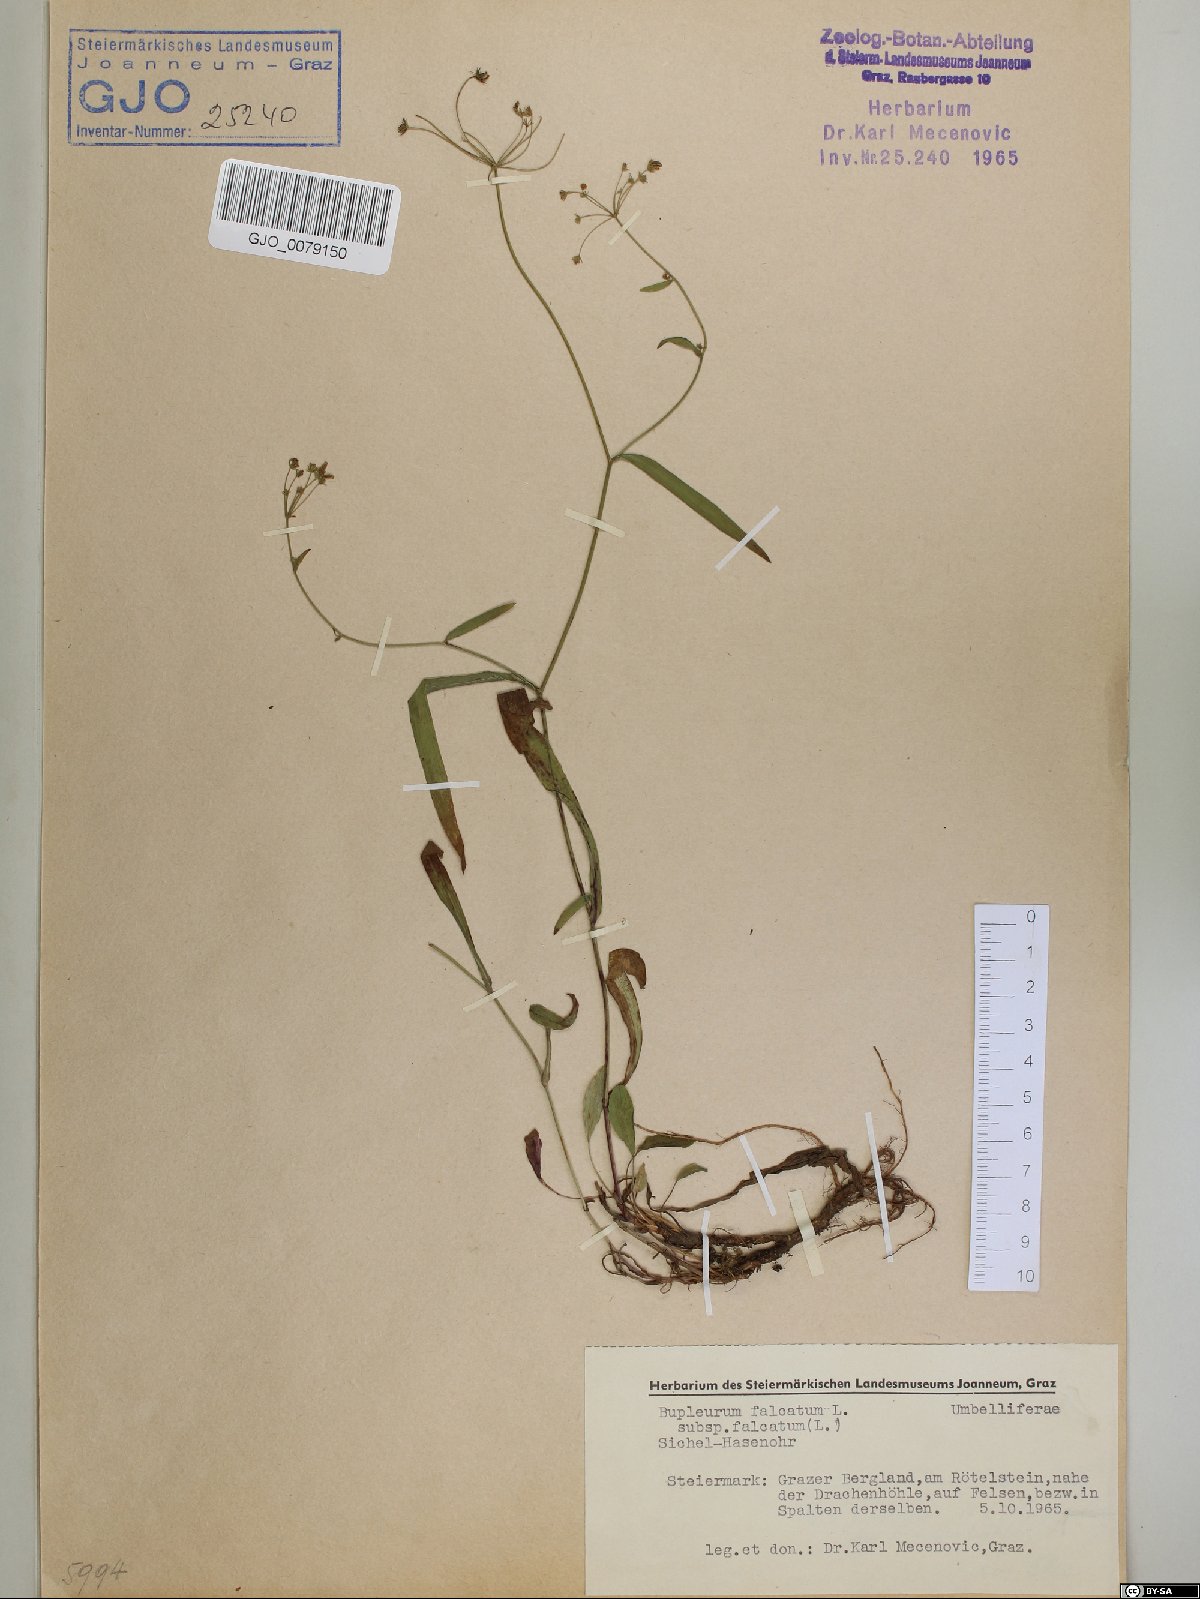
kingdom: Plantae
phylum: Tracheophyta
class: Magnoliopsida
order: Apiales
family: Apiaceae
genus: Bupleurum
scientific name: Bupleurum falcatum
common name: Sickle-leaved hare's-ear
